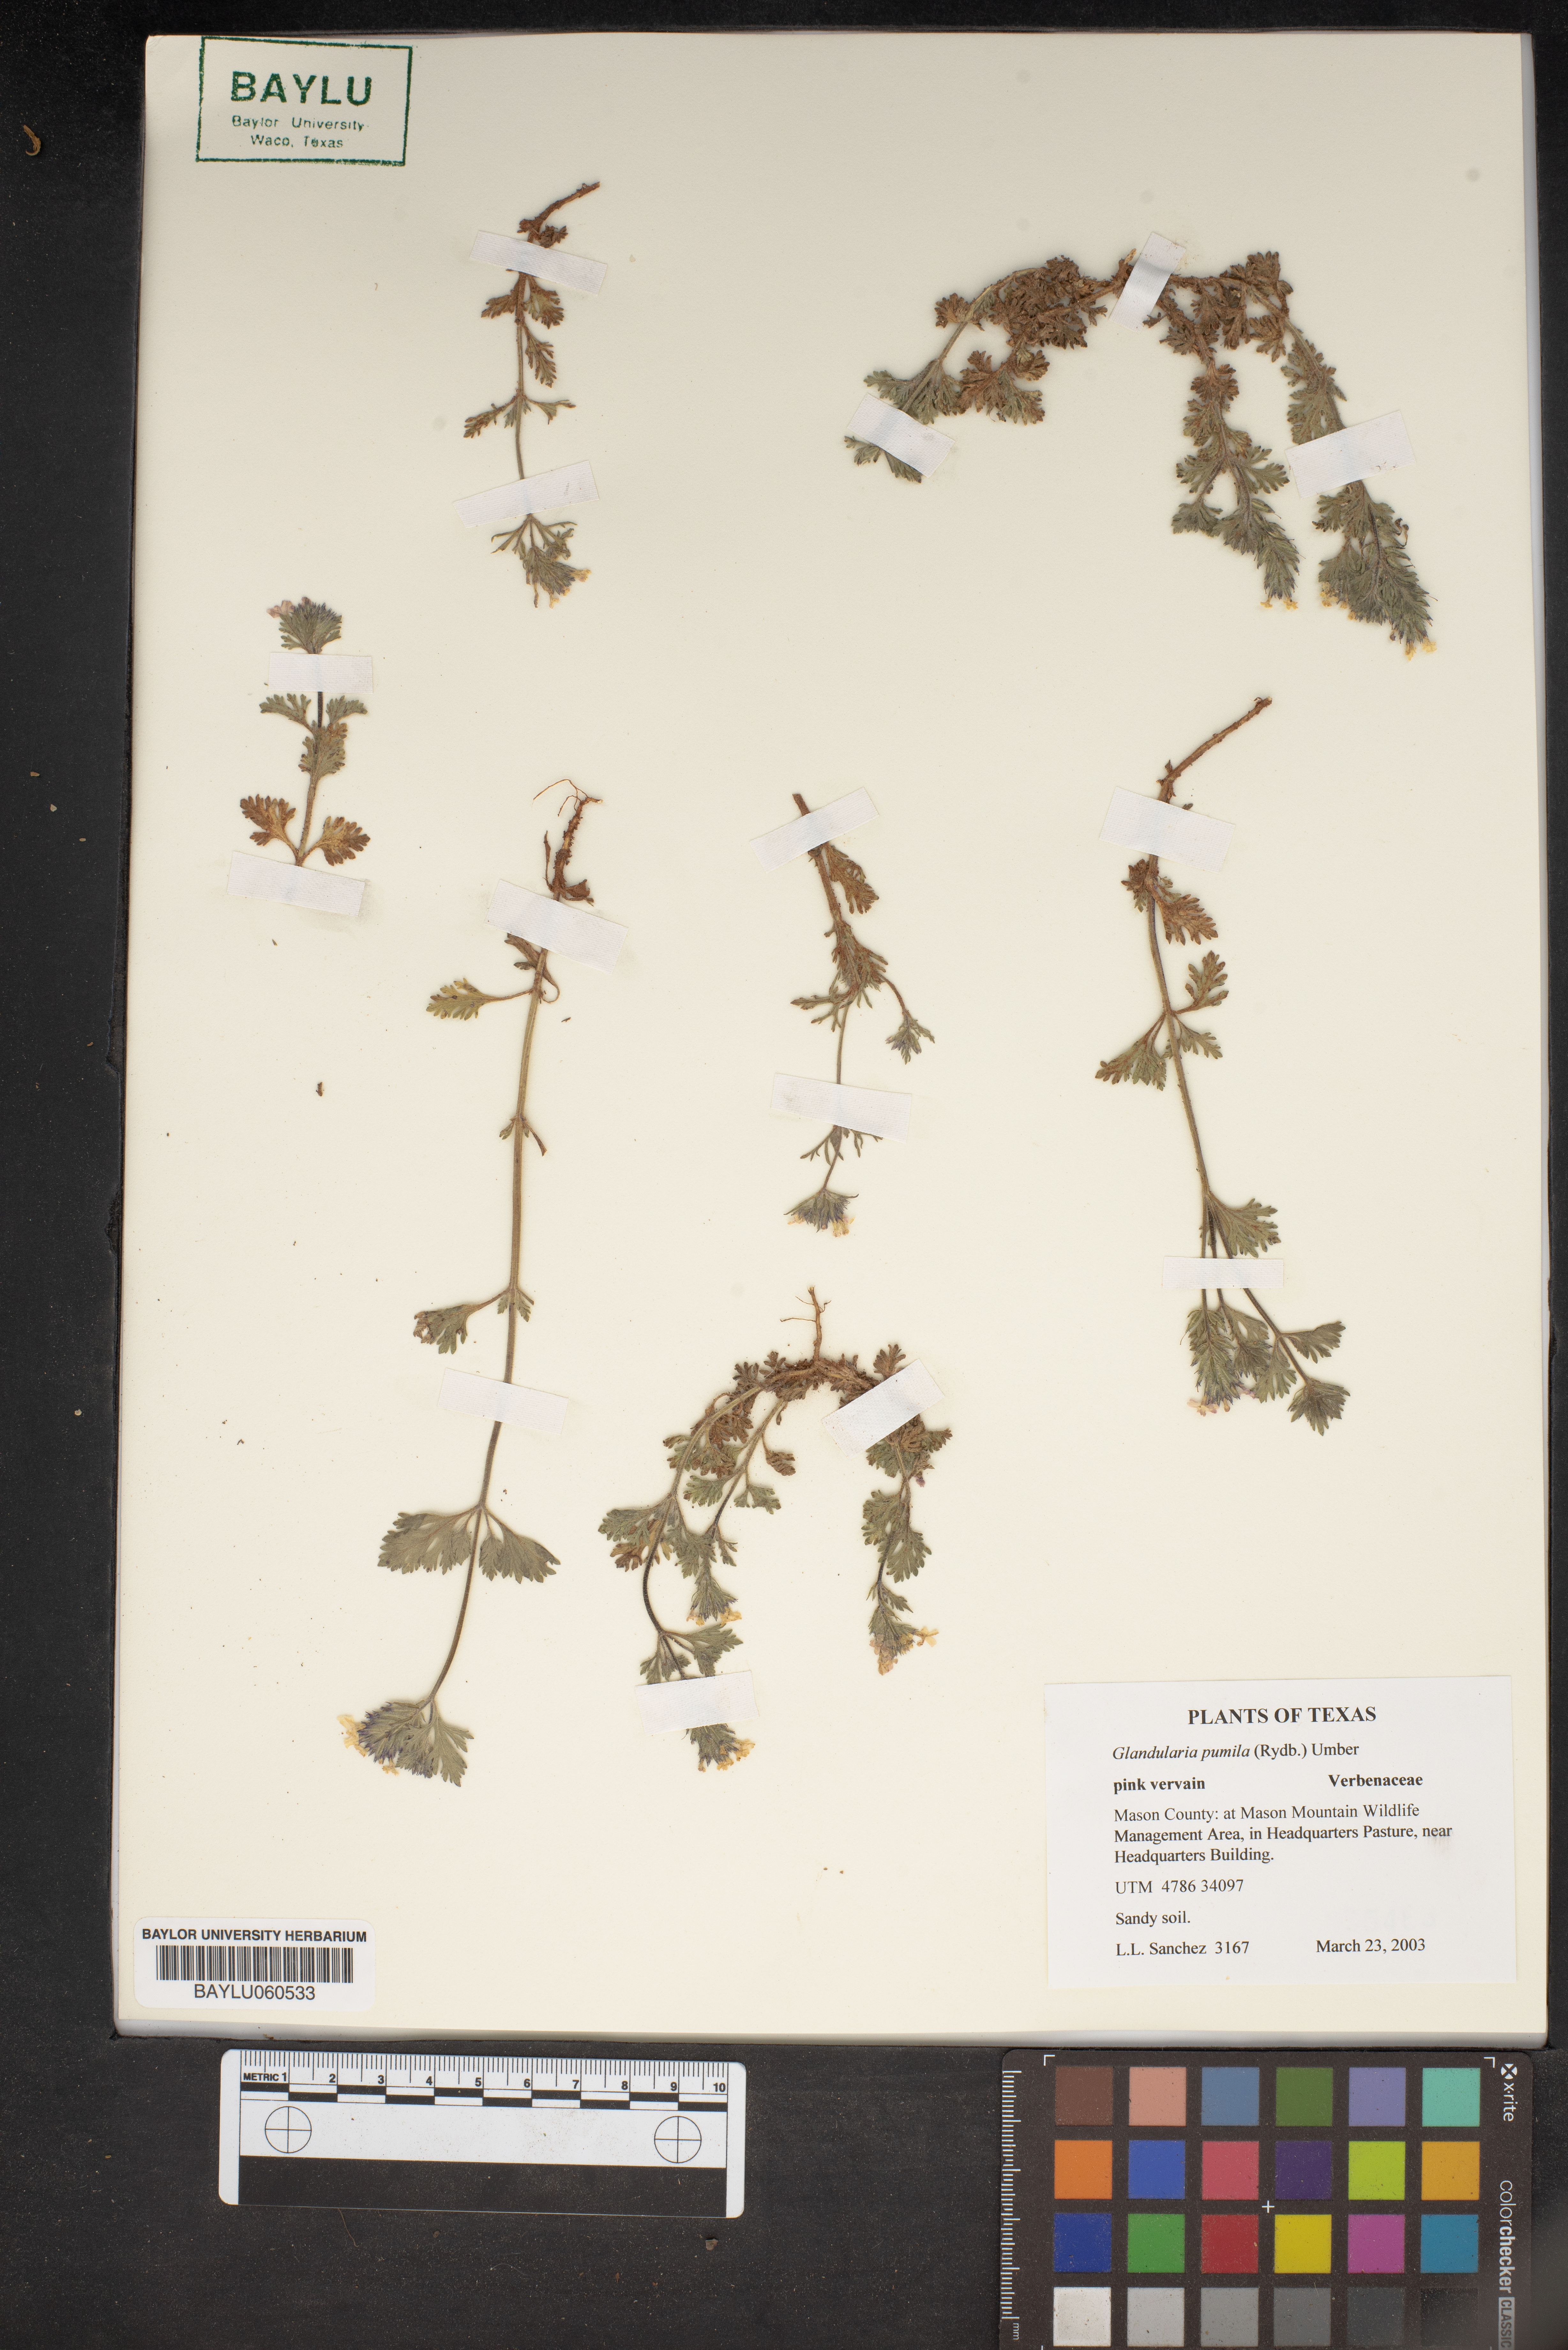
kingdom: Plantae
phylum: Tracheophyta
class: Magnoliopsida
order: Lamiales
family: Verbenaceae
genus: Verbena
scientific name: Verbena pumila
